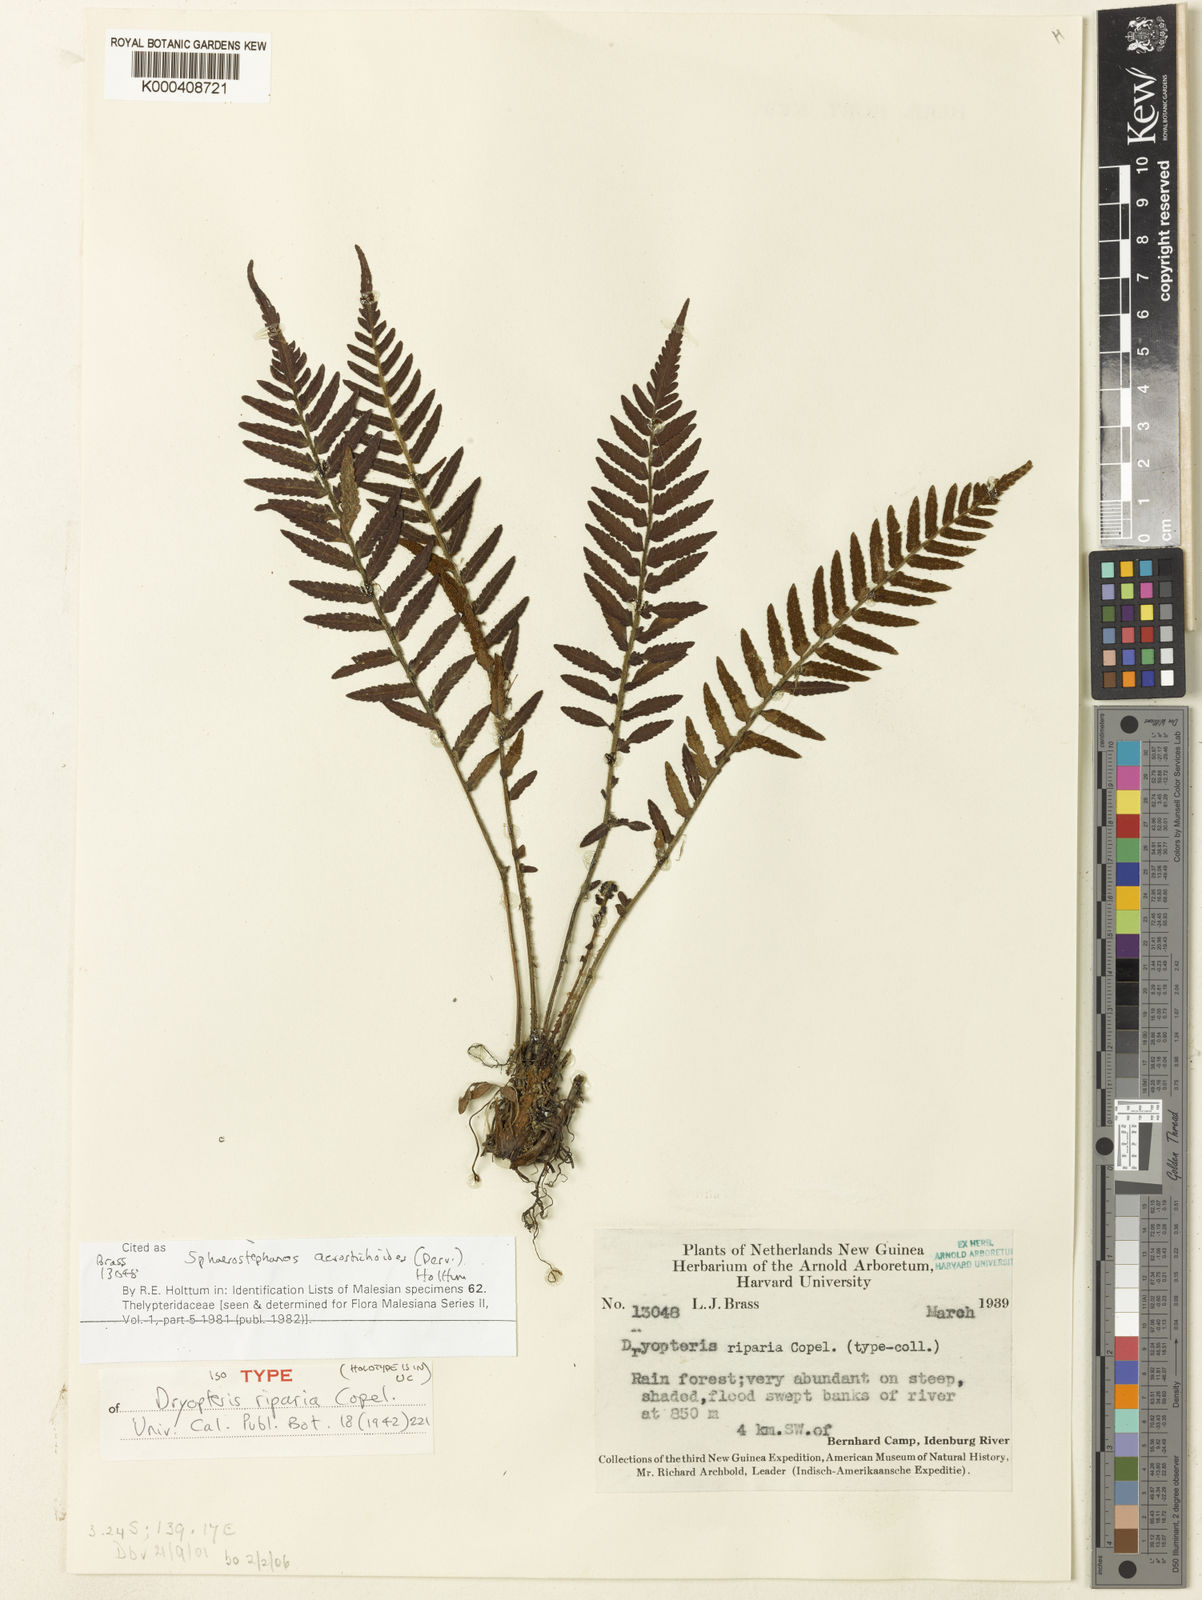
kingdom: Plantae
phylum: Tracheophyta
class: Polypodiopsida
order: Polypodiales
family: Thelypteridaceae
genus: Sphaerostephanos
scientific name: Sphaerostephanos acrostichoides
